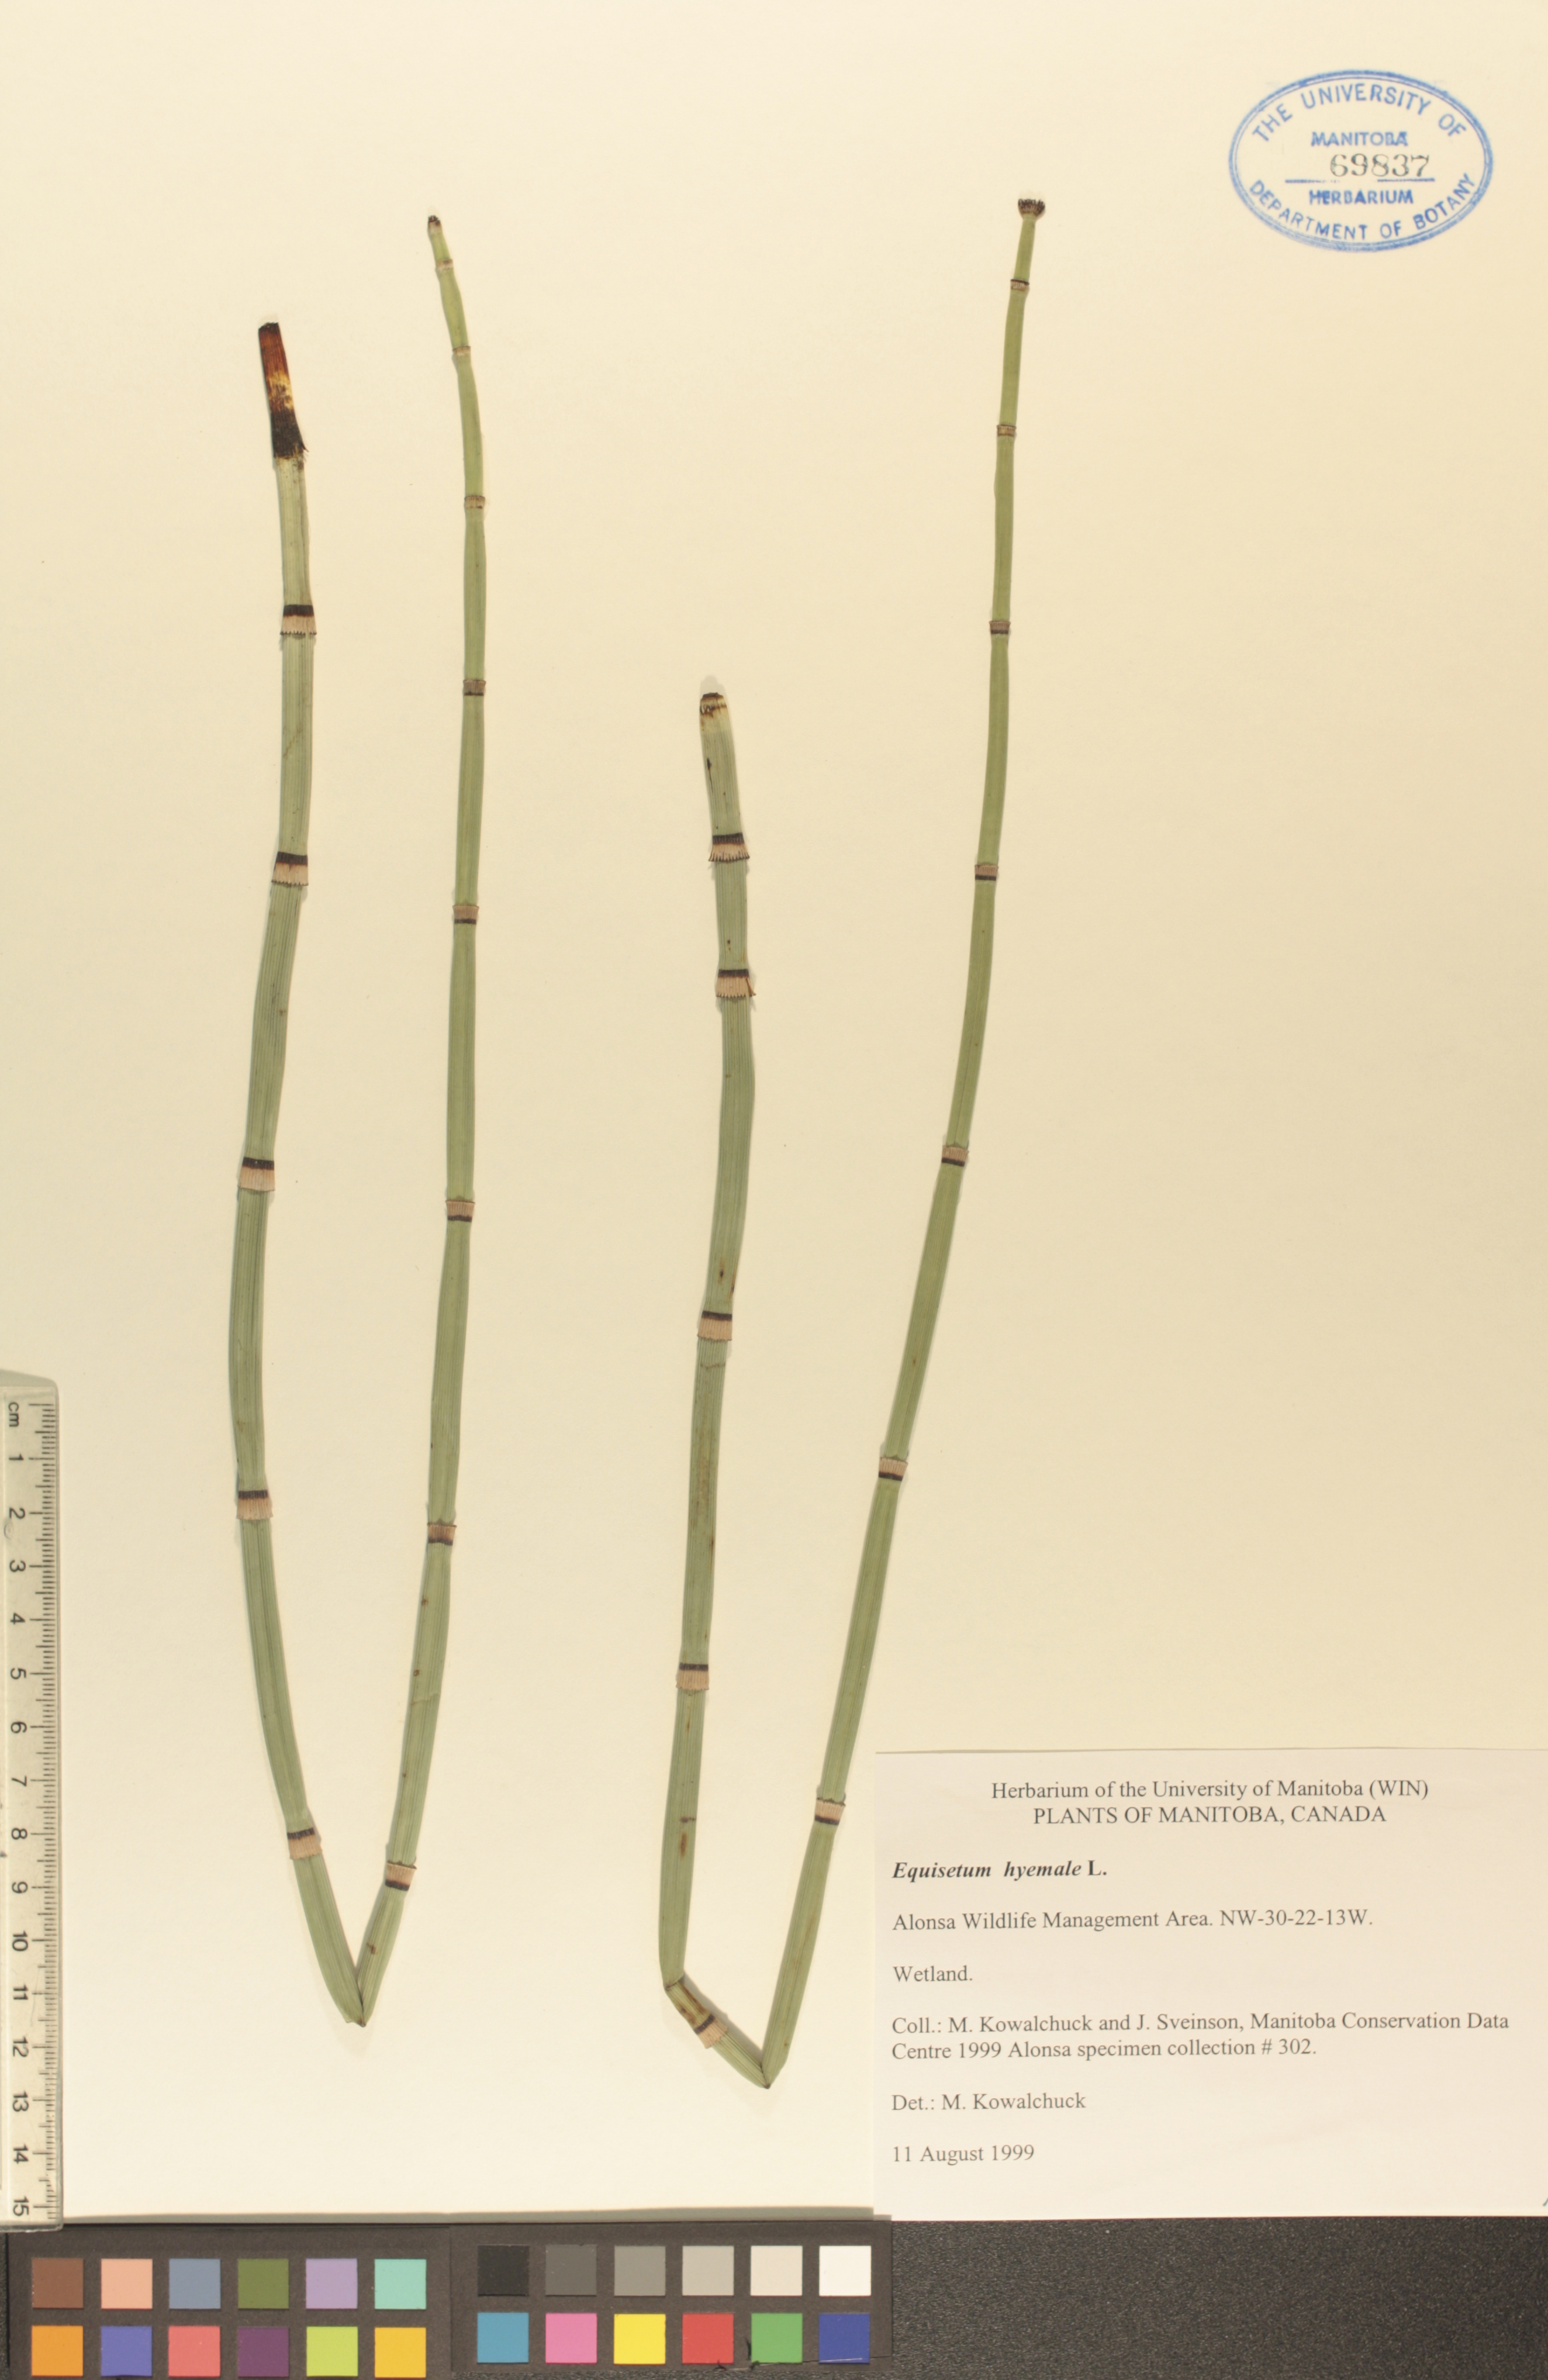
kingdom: Plantae
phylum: Tracheophyta
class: Polypodiopsida
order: Equisetales
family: Equisetaceae
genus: Equisetum
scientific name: Equisetum hyemale
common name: Rough horsetail
